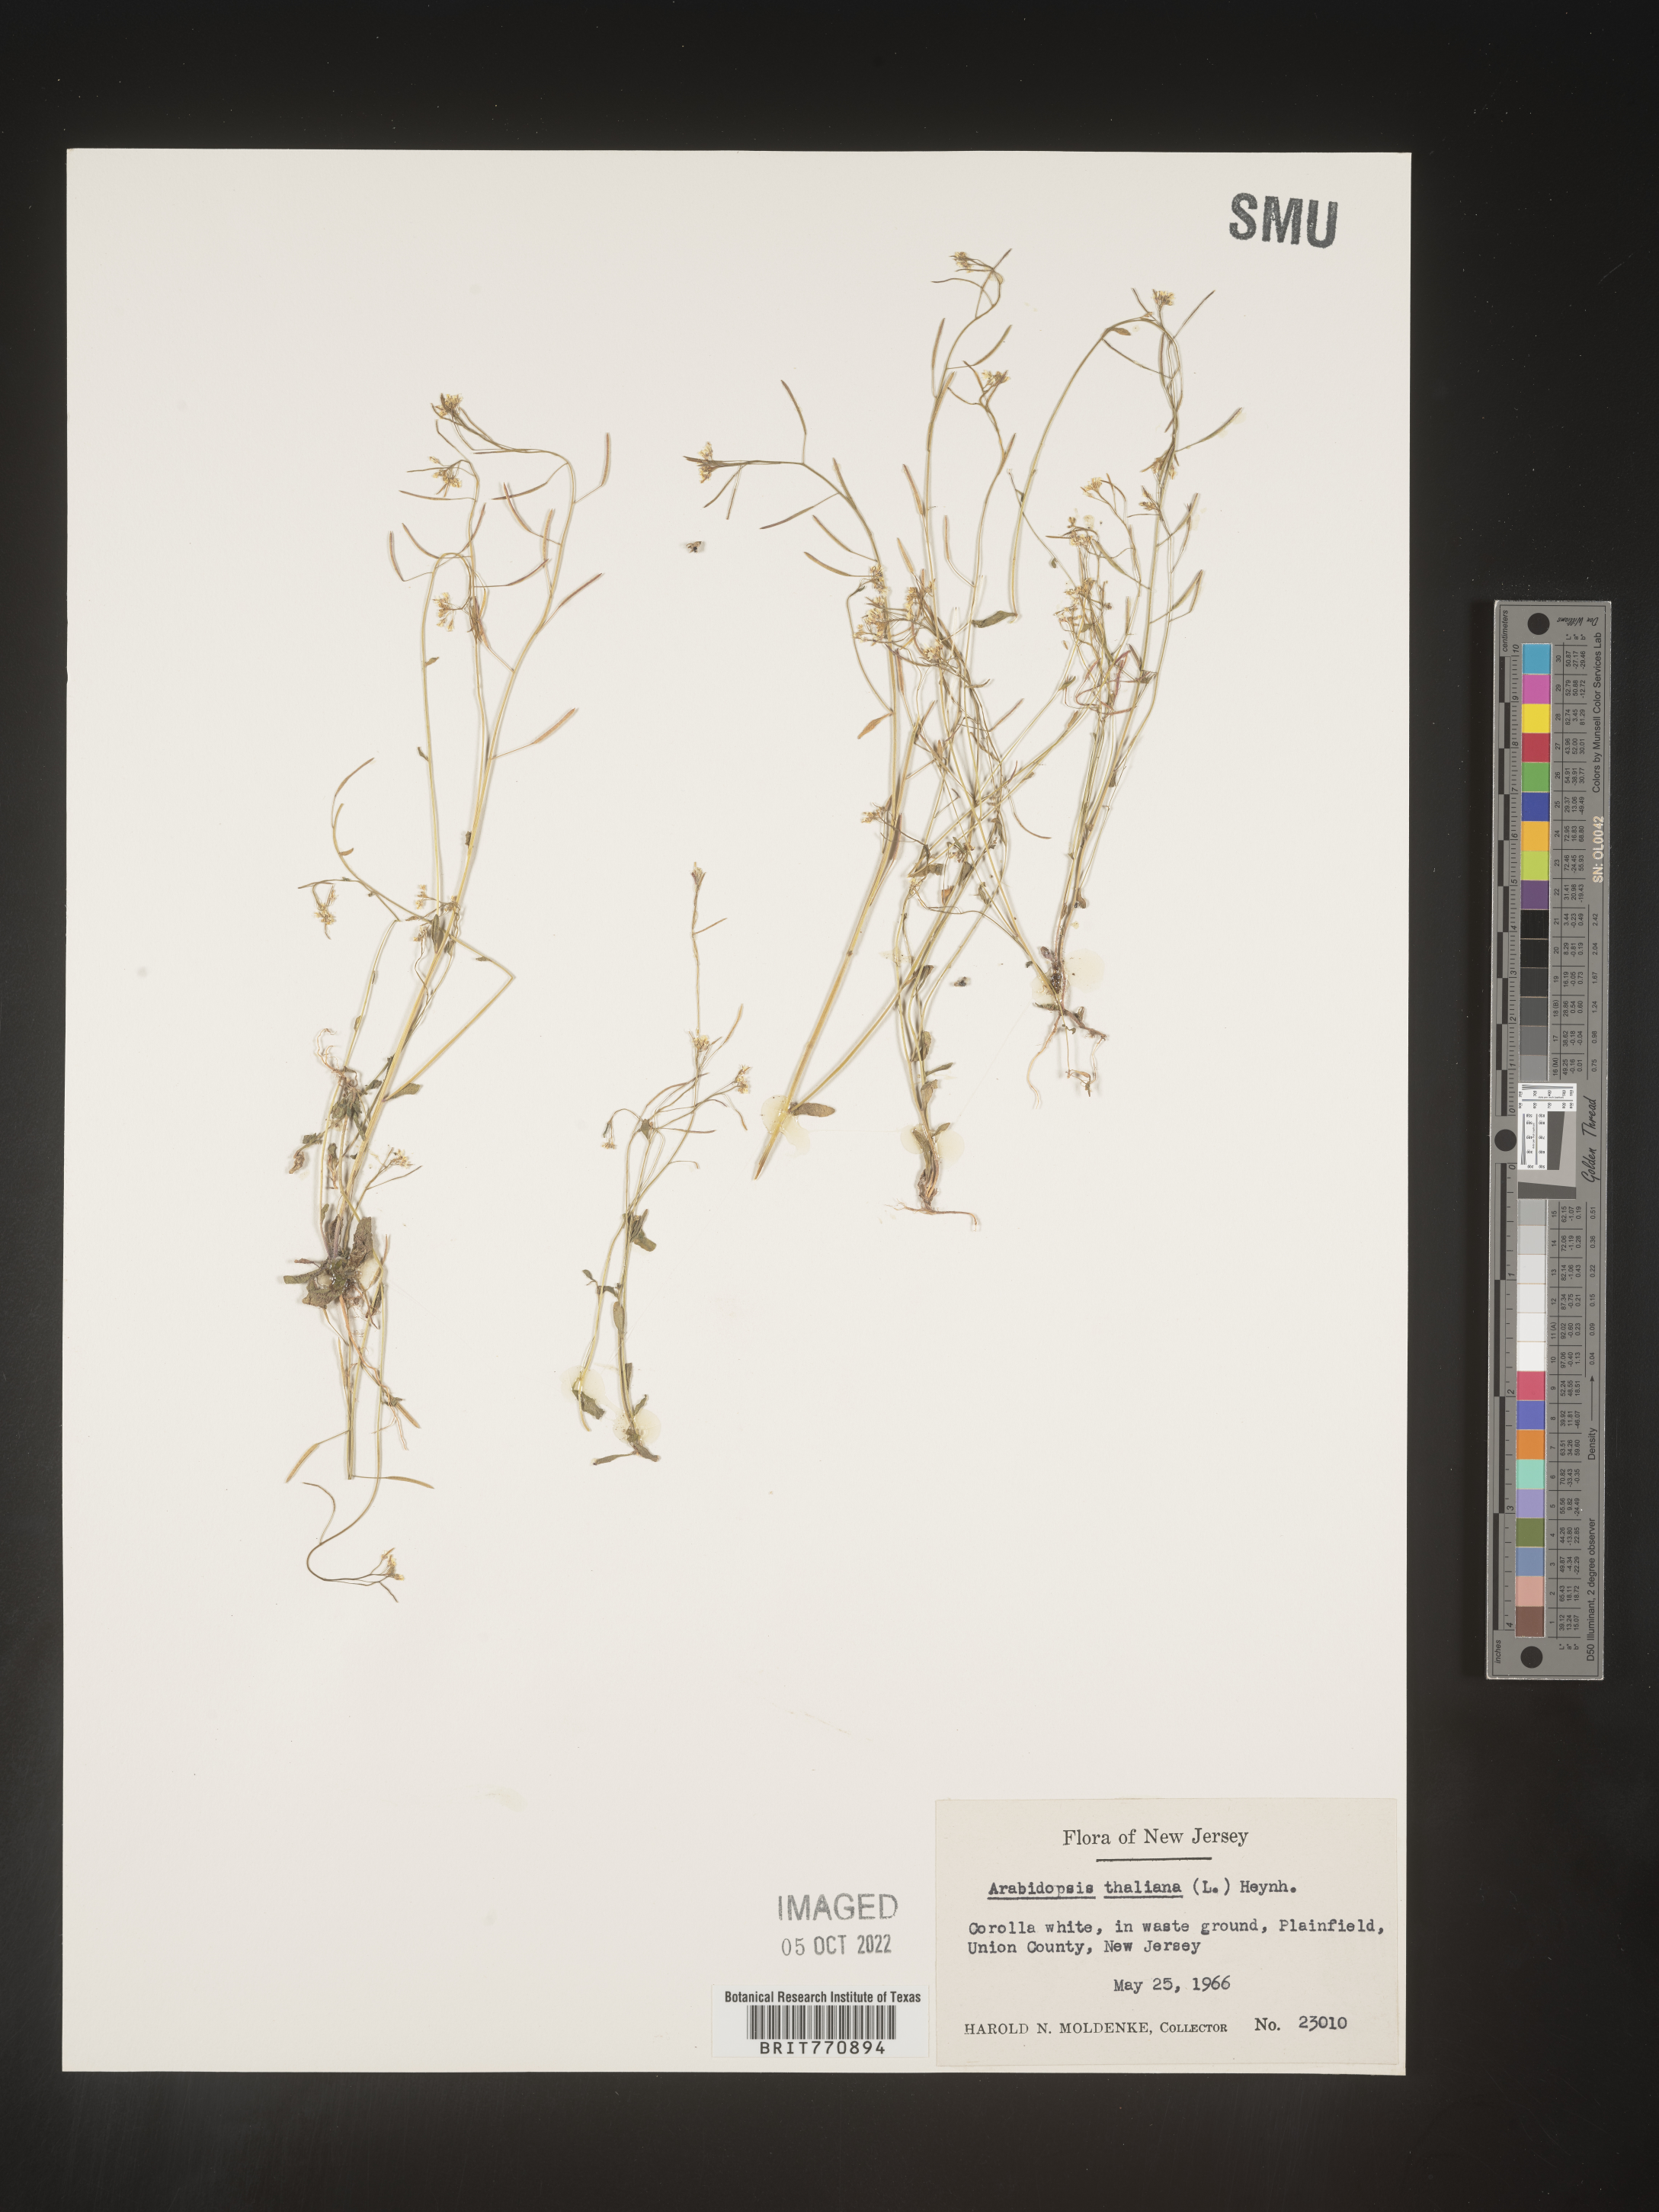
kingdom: Plantae
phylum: Tracheophyta
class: Magnoliopsida
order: Brassicales
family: Brassicaceae
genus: Arabidopsis
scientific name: Arabidopsis thaliana
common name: Thale cress
